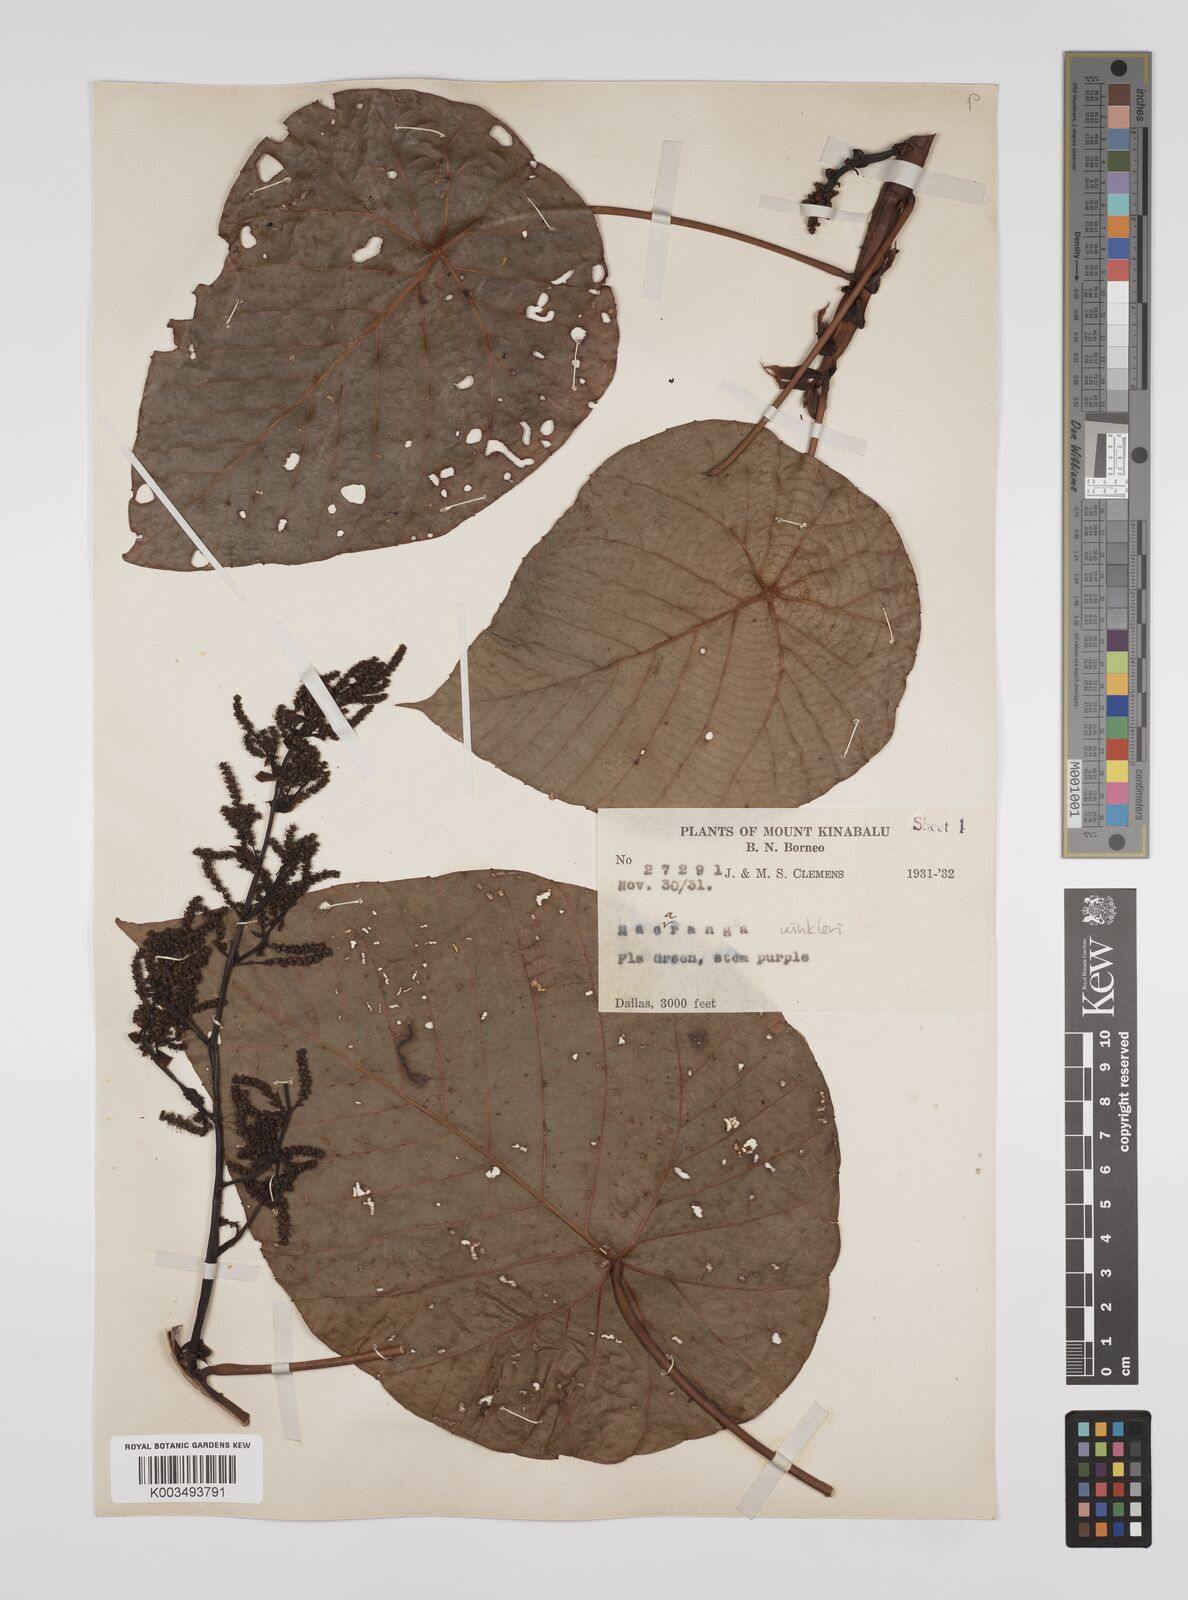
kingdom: Plantae
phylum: Tracheophyta
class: Magnoliopsida
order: Malpighiales
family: Euphorbiaceae
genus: Macaranga
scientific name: Macaranga winkleri
